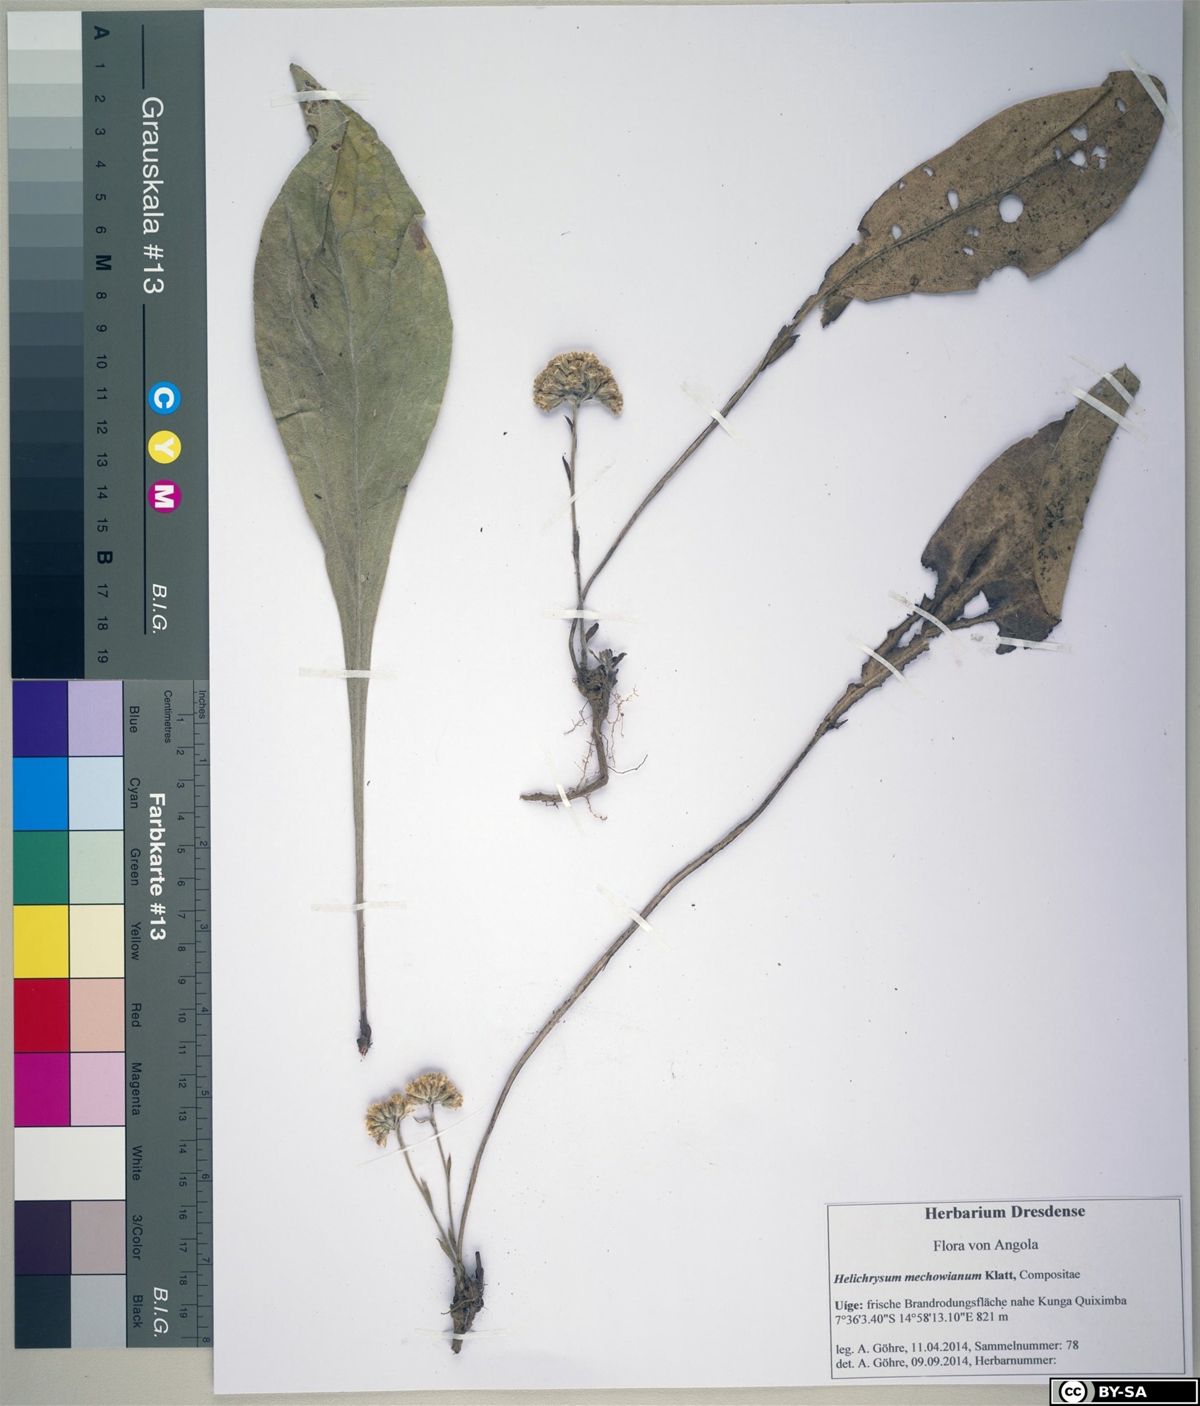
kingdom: Plantae
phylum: Tracheophyta
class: Magnoliopsida
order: Asterales
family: Asteraceae
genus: Helichrysum
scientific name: Helichrysum mechowianum
